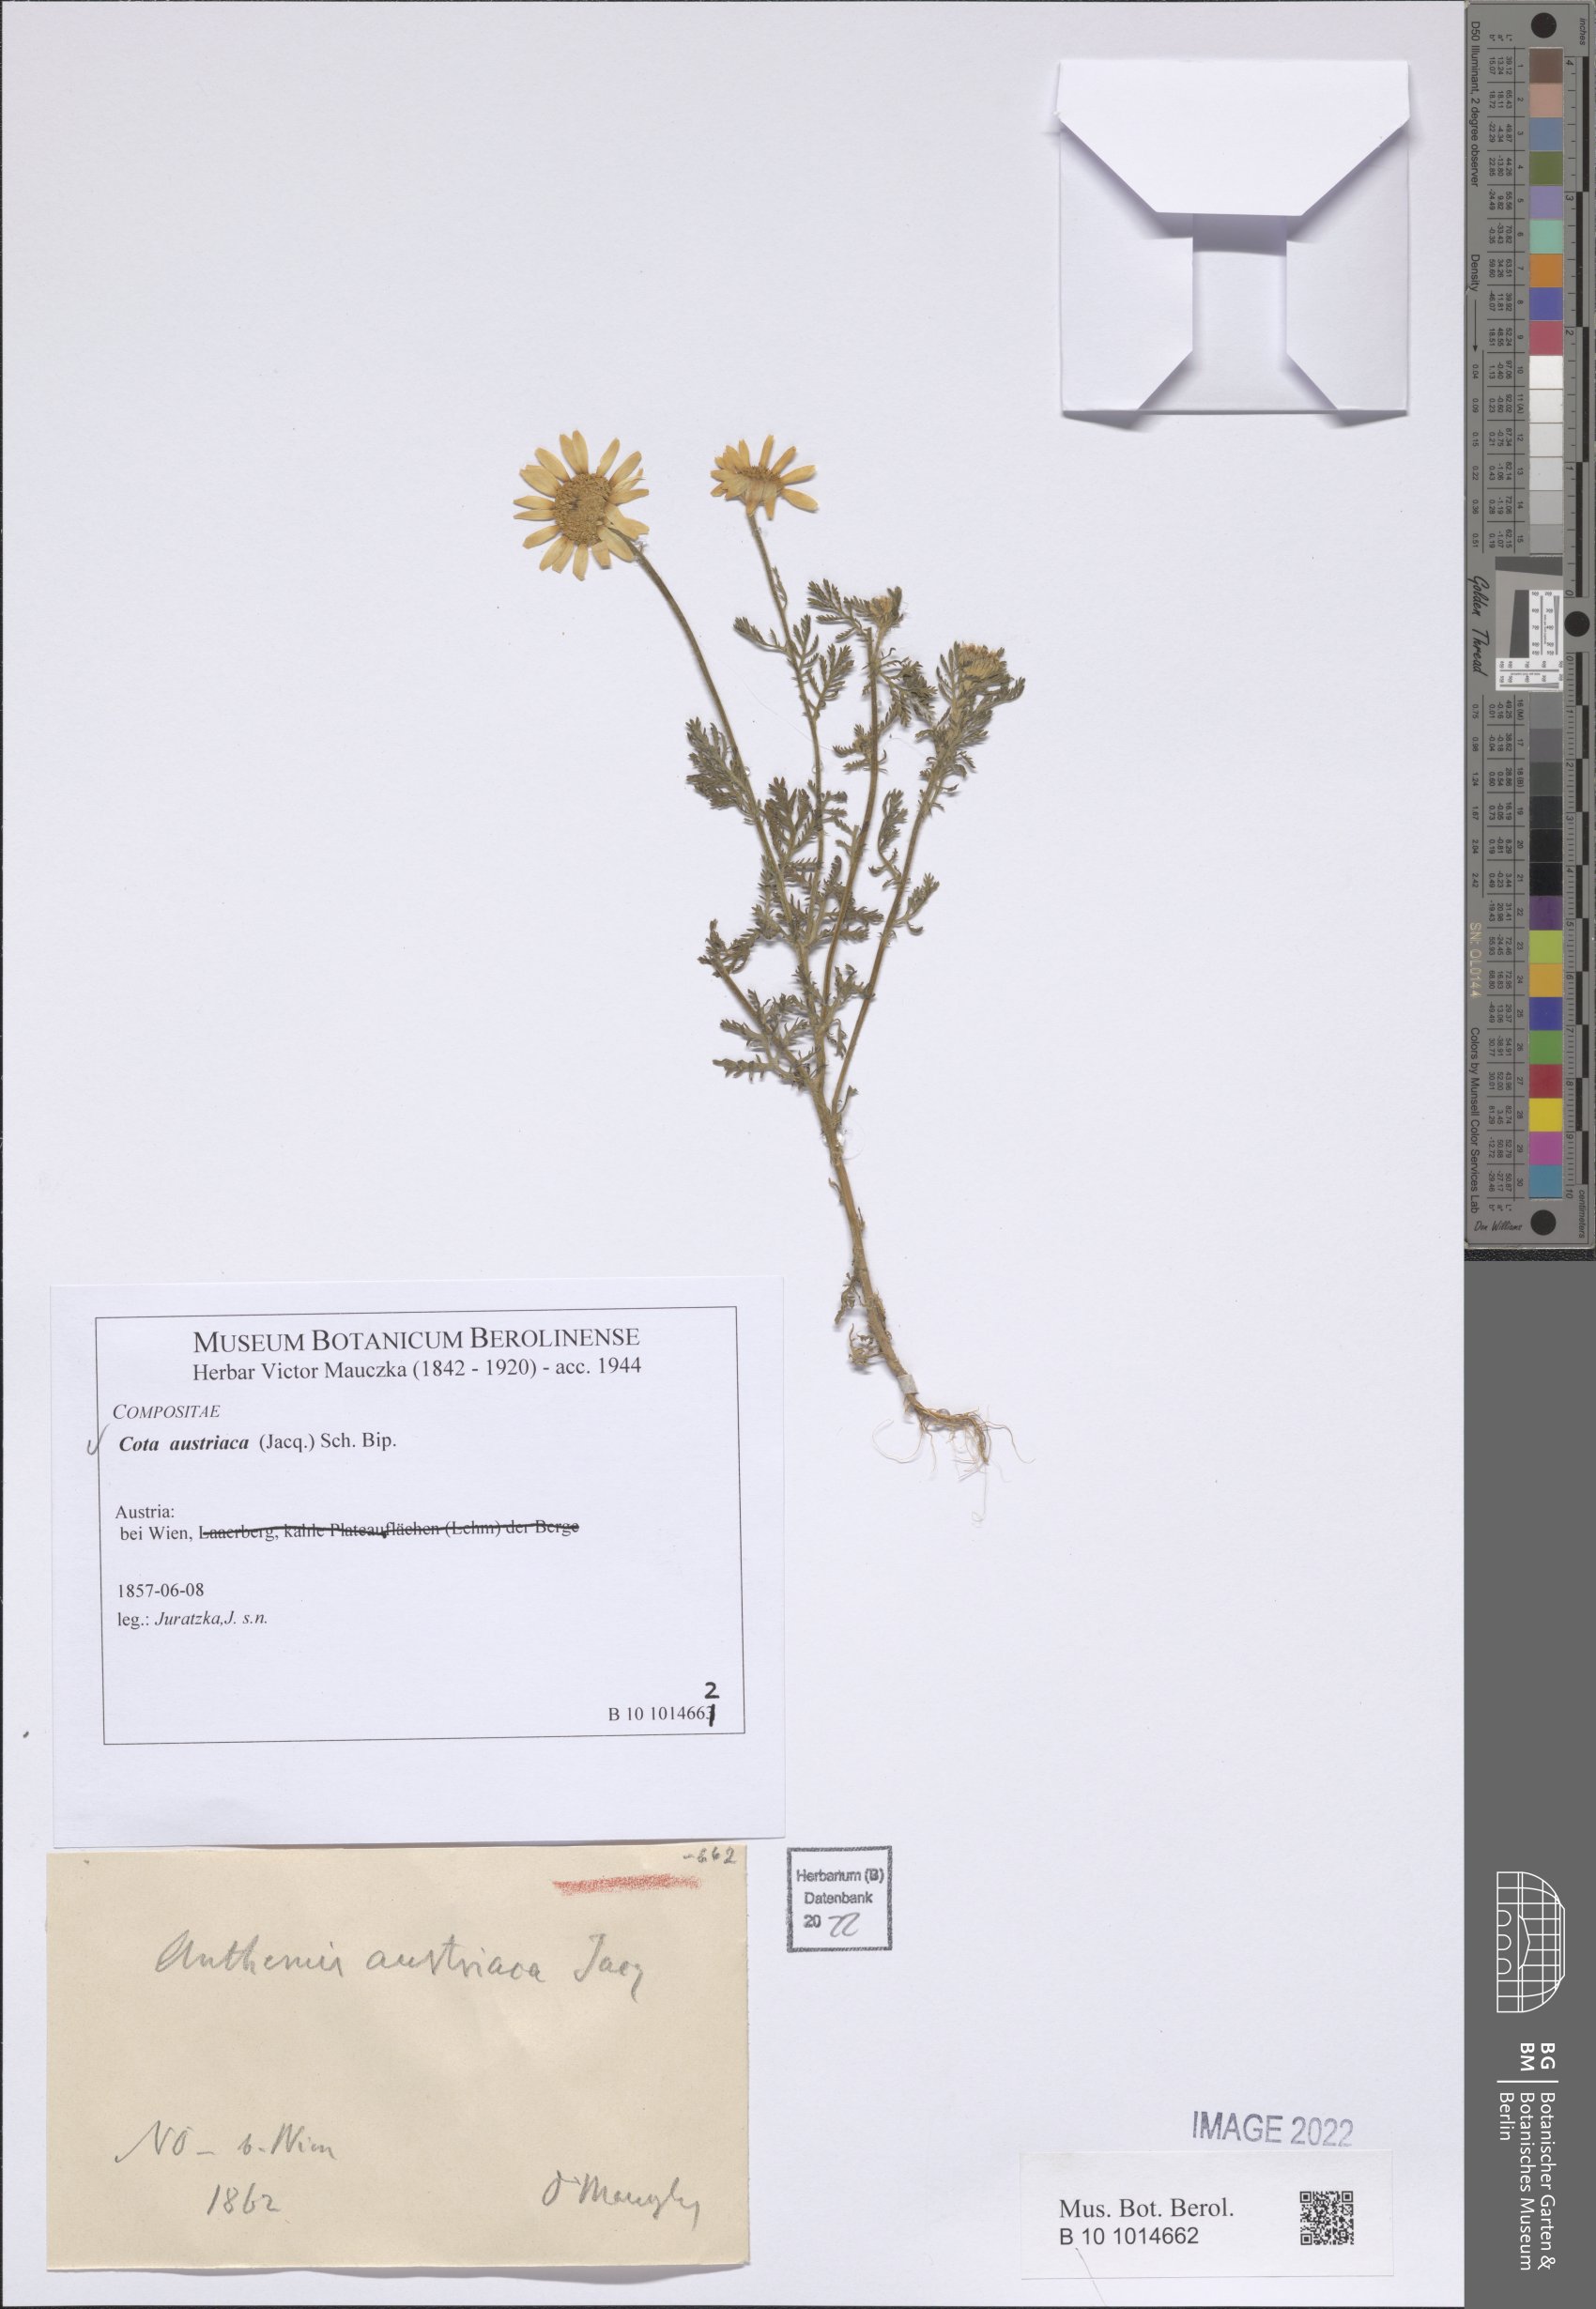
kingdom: Plantae
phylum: Tracheophyta
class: Magnoliopsida
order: Asterales
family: Asteraceae
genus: Cota
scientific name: Cota austriaca
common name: Austrian chamomile
